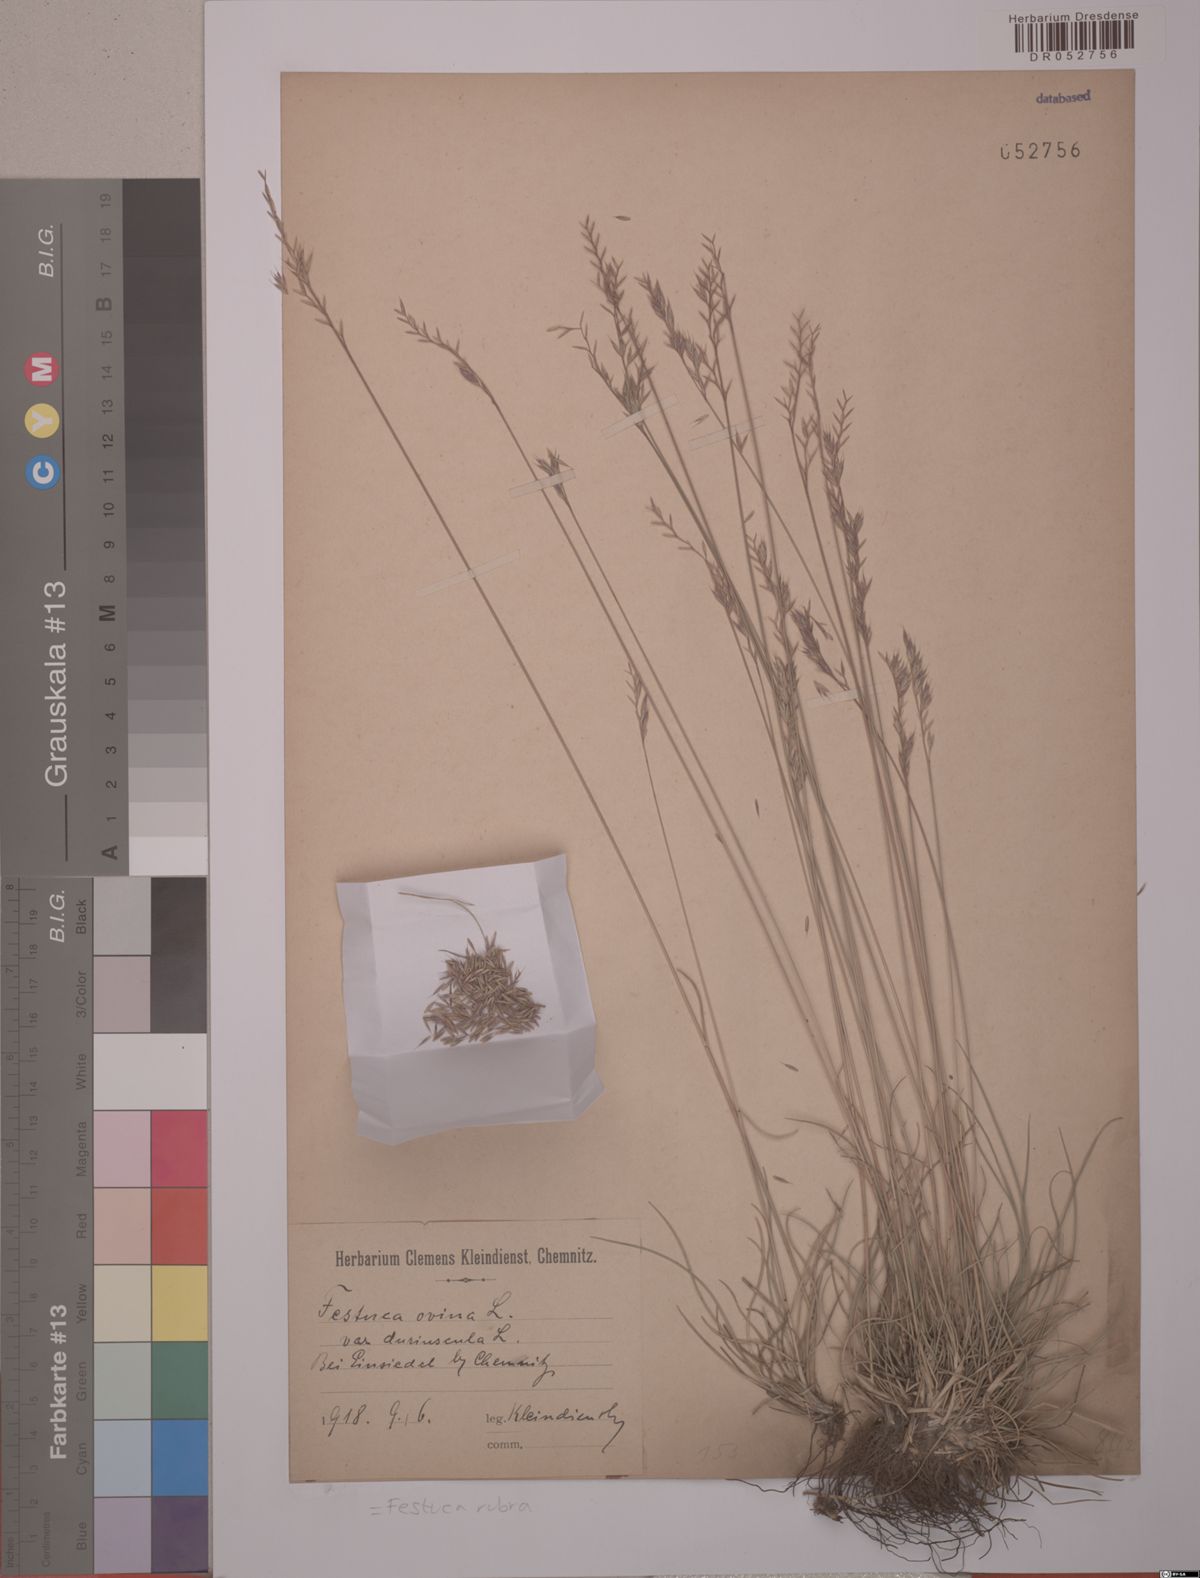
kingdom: Plantae
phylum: Tracheophyta
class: Liliopsida
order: Poales
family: Poaceae
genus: Festuca
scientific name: Festuca rubra
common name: Red fescue
